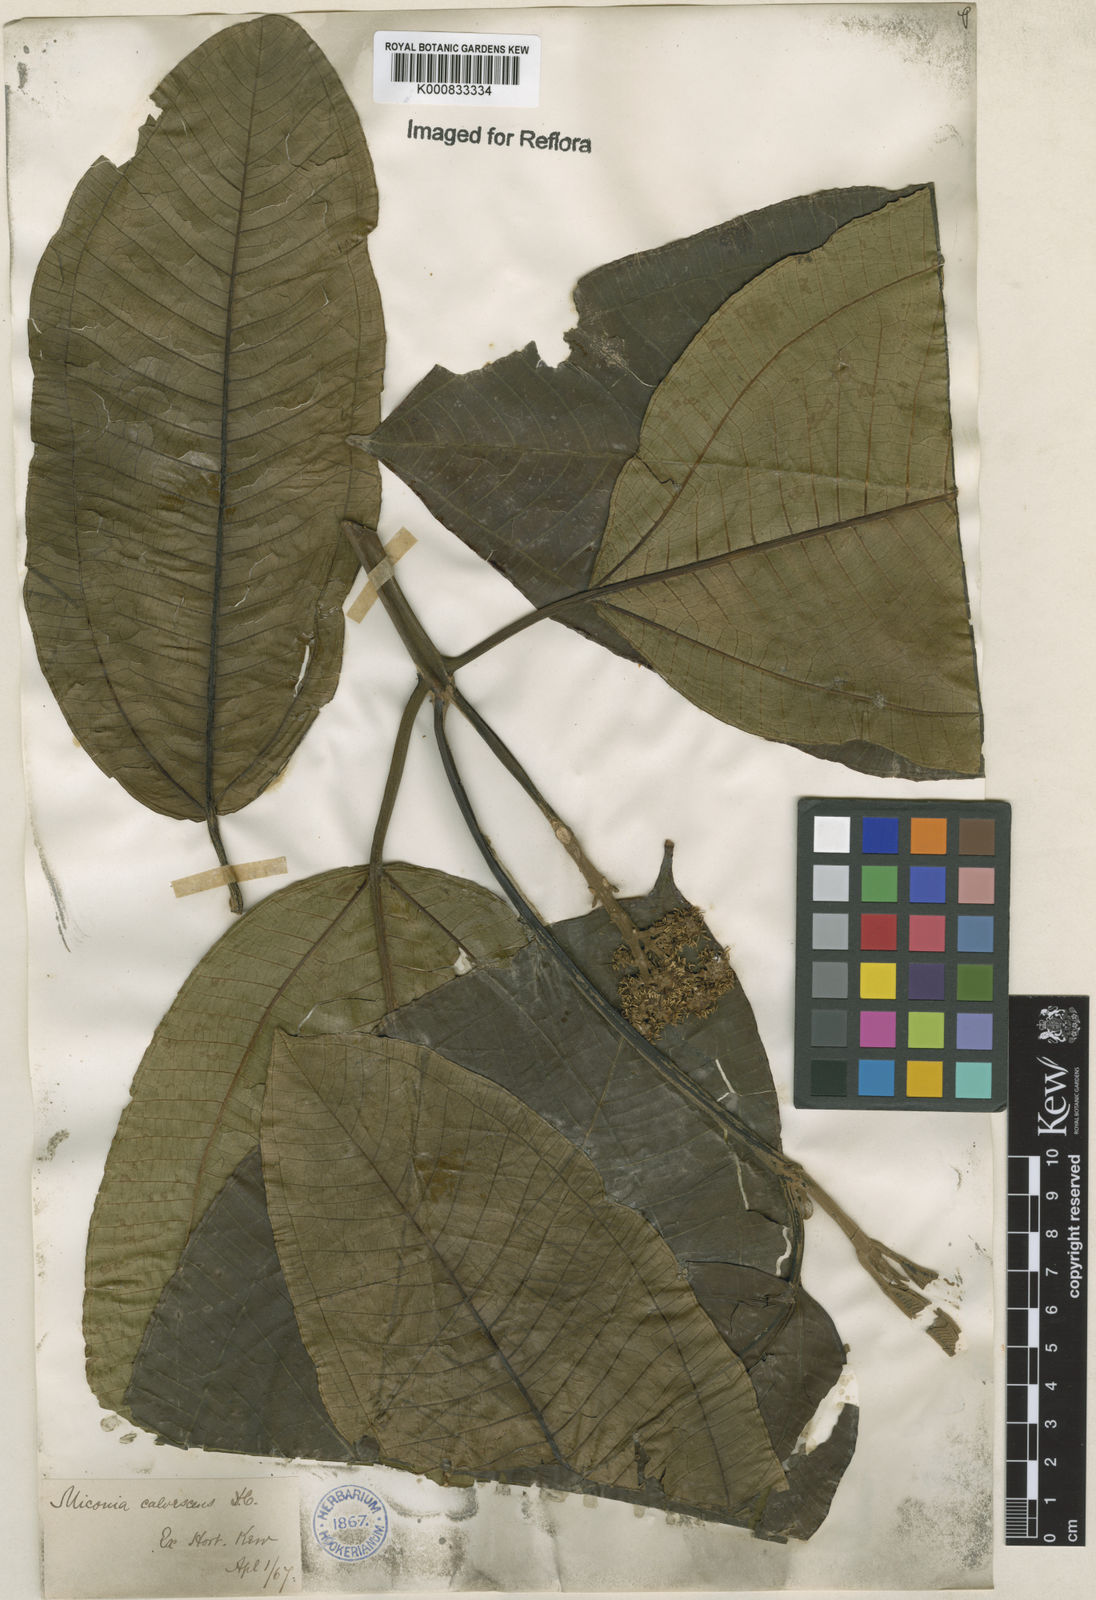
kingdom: Plantae
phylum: Tracheophyta
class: Magnoliopsida
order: Myrtales
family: Melastomataceae
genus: Miconia
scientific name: Miconia calvescens
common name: Purple plague
